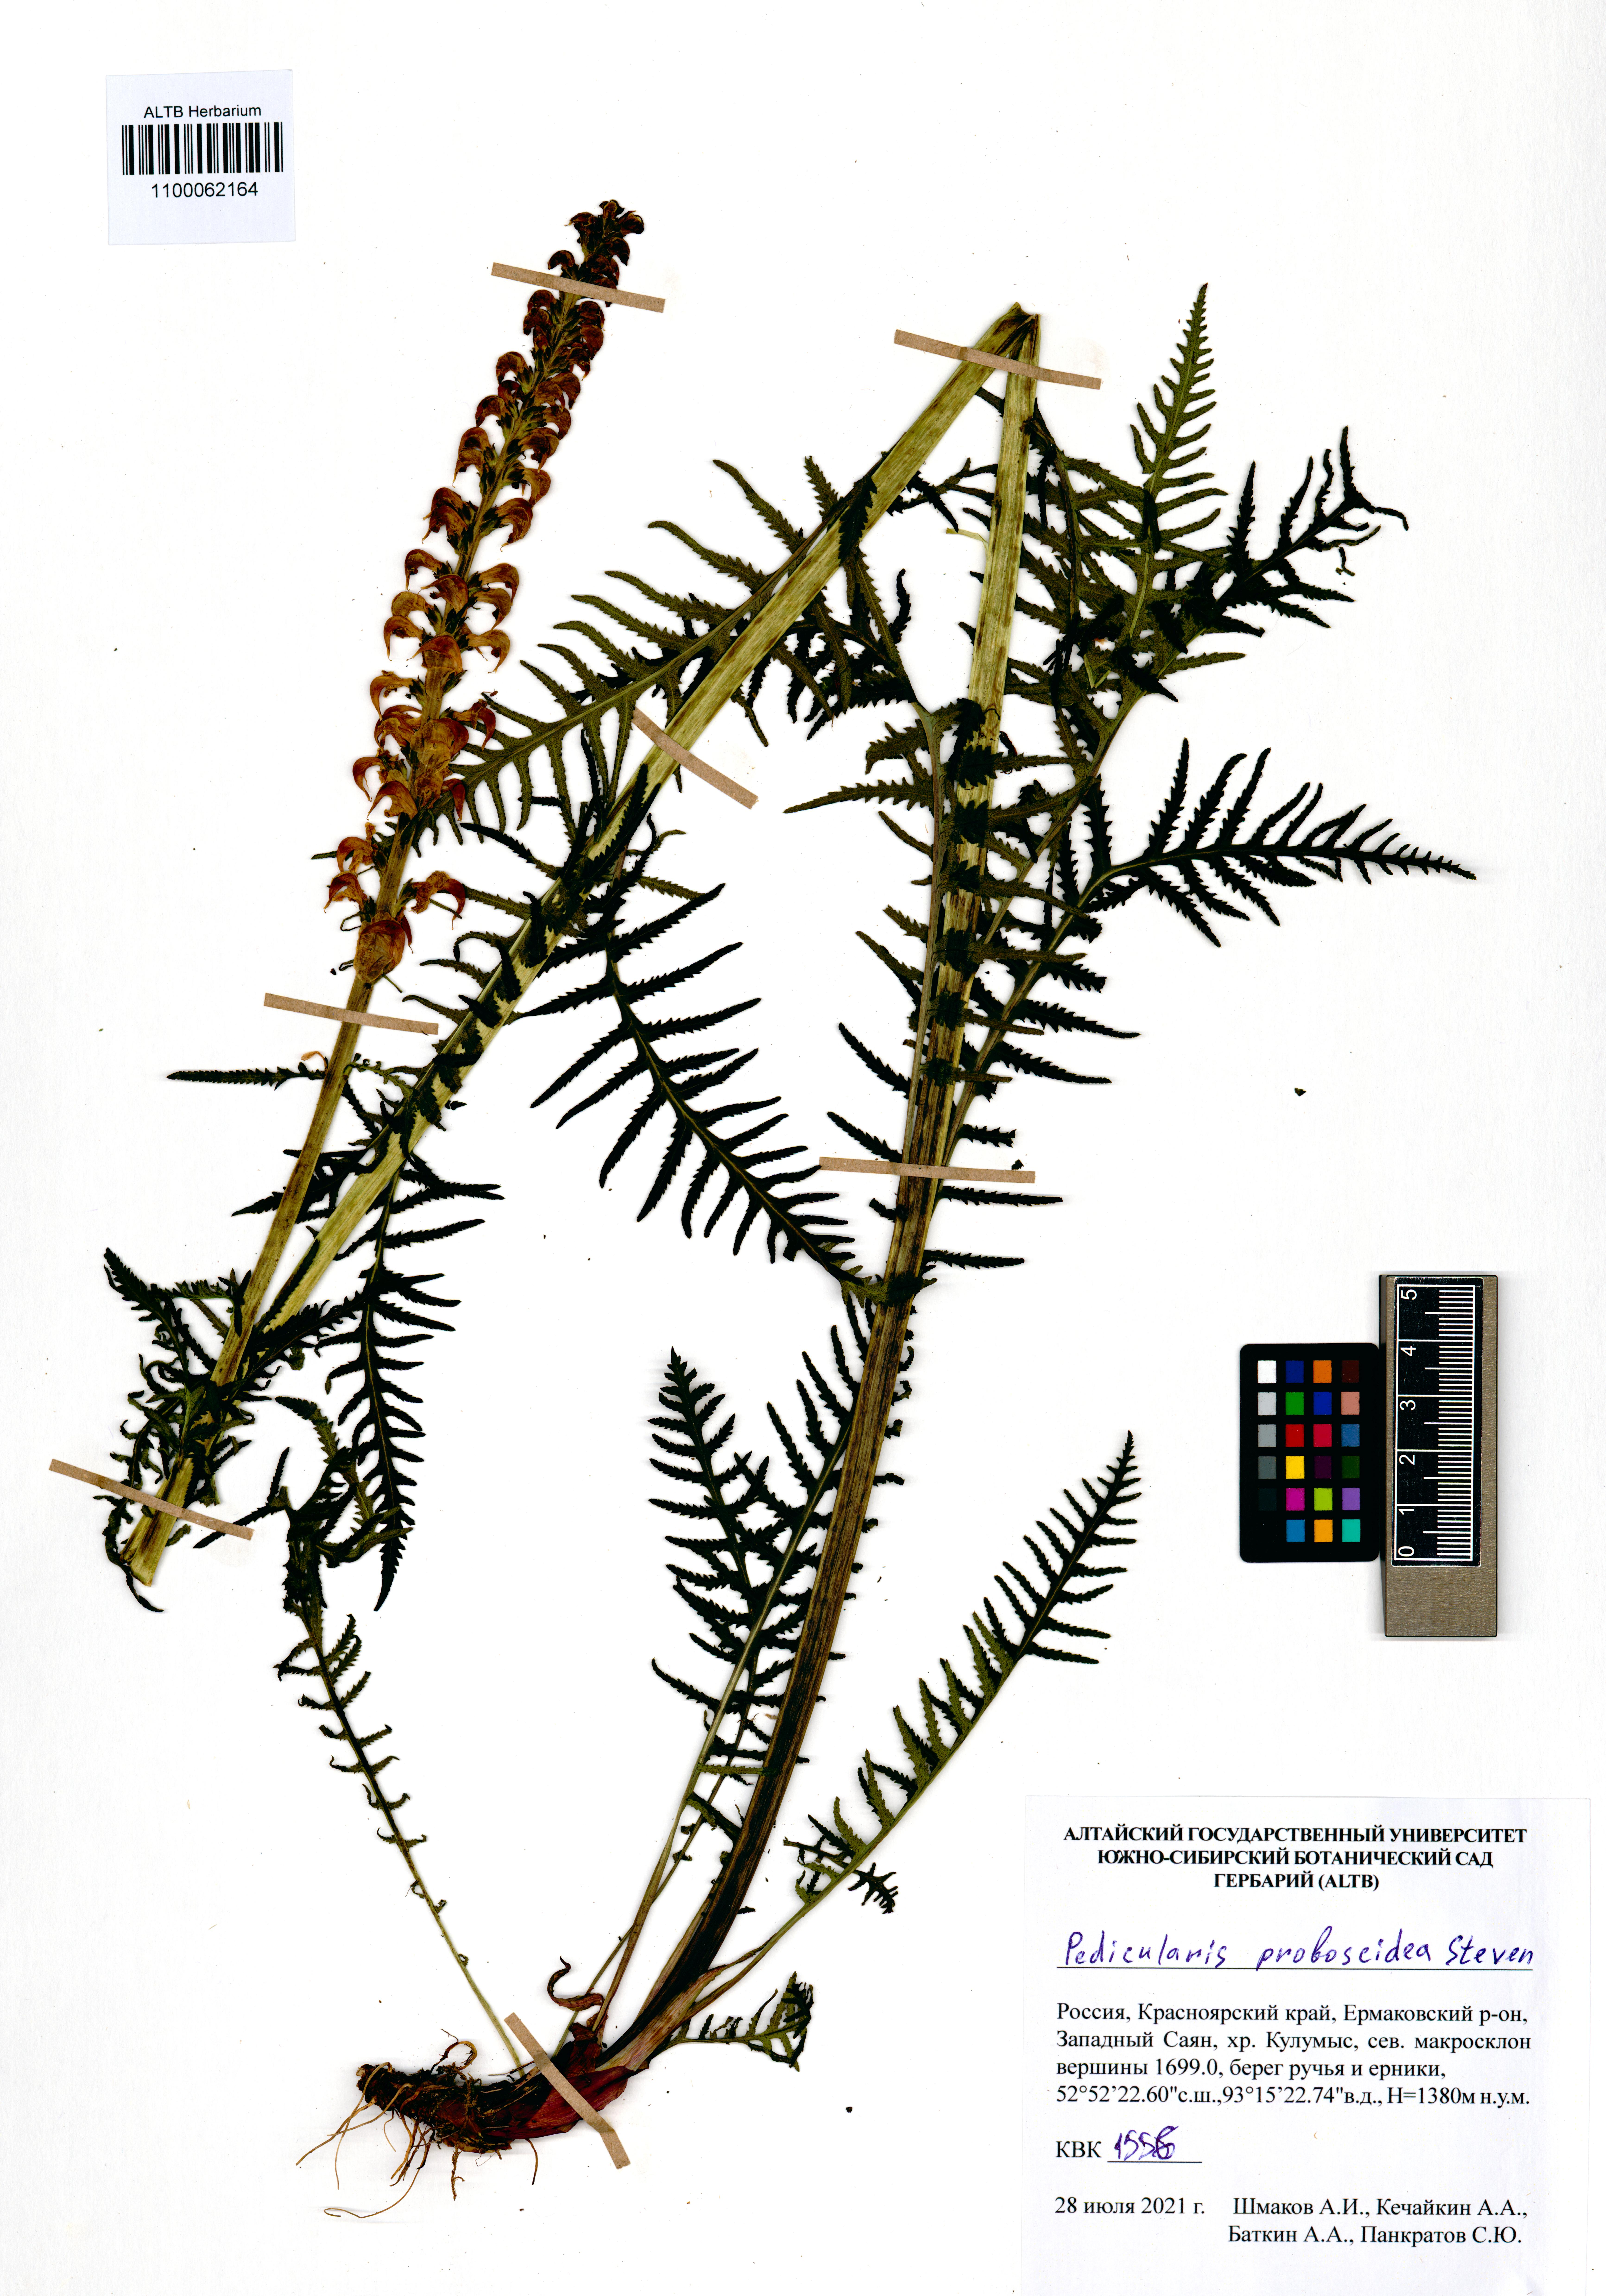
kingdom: Plantae
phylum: Tracheophyta
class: Magnoliopsida
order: Lamiales
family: Orobanchaceae
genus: Pedicularis
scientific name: Pedicularis proboscidea
